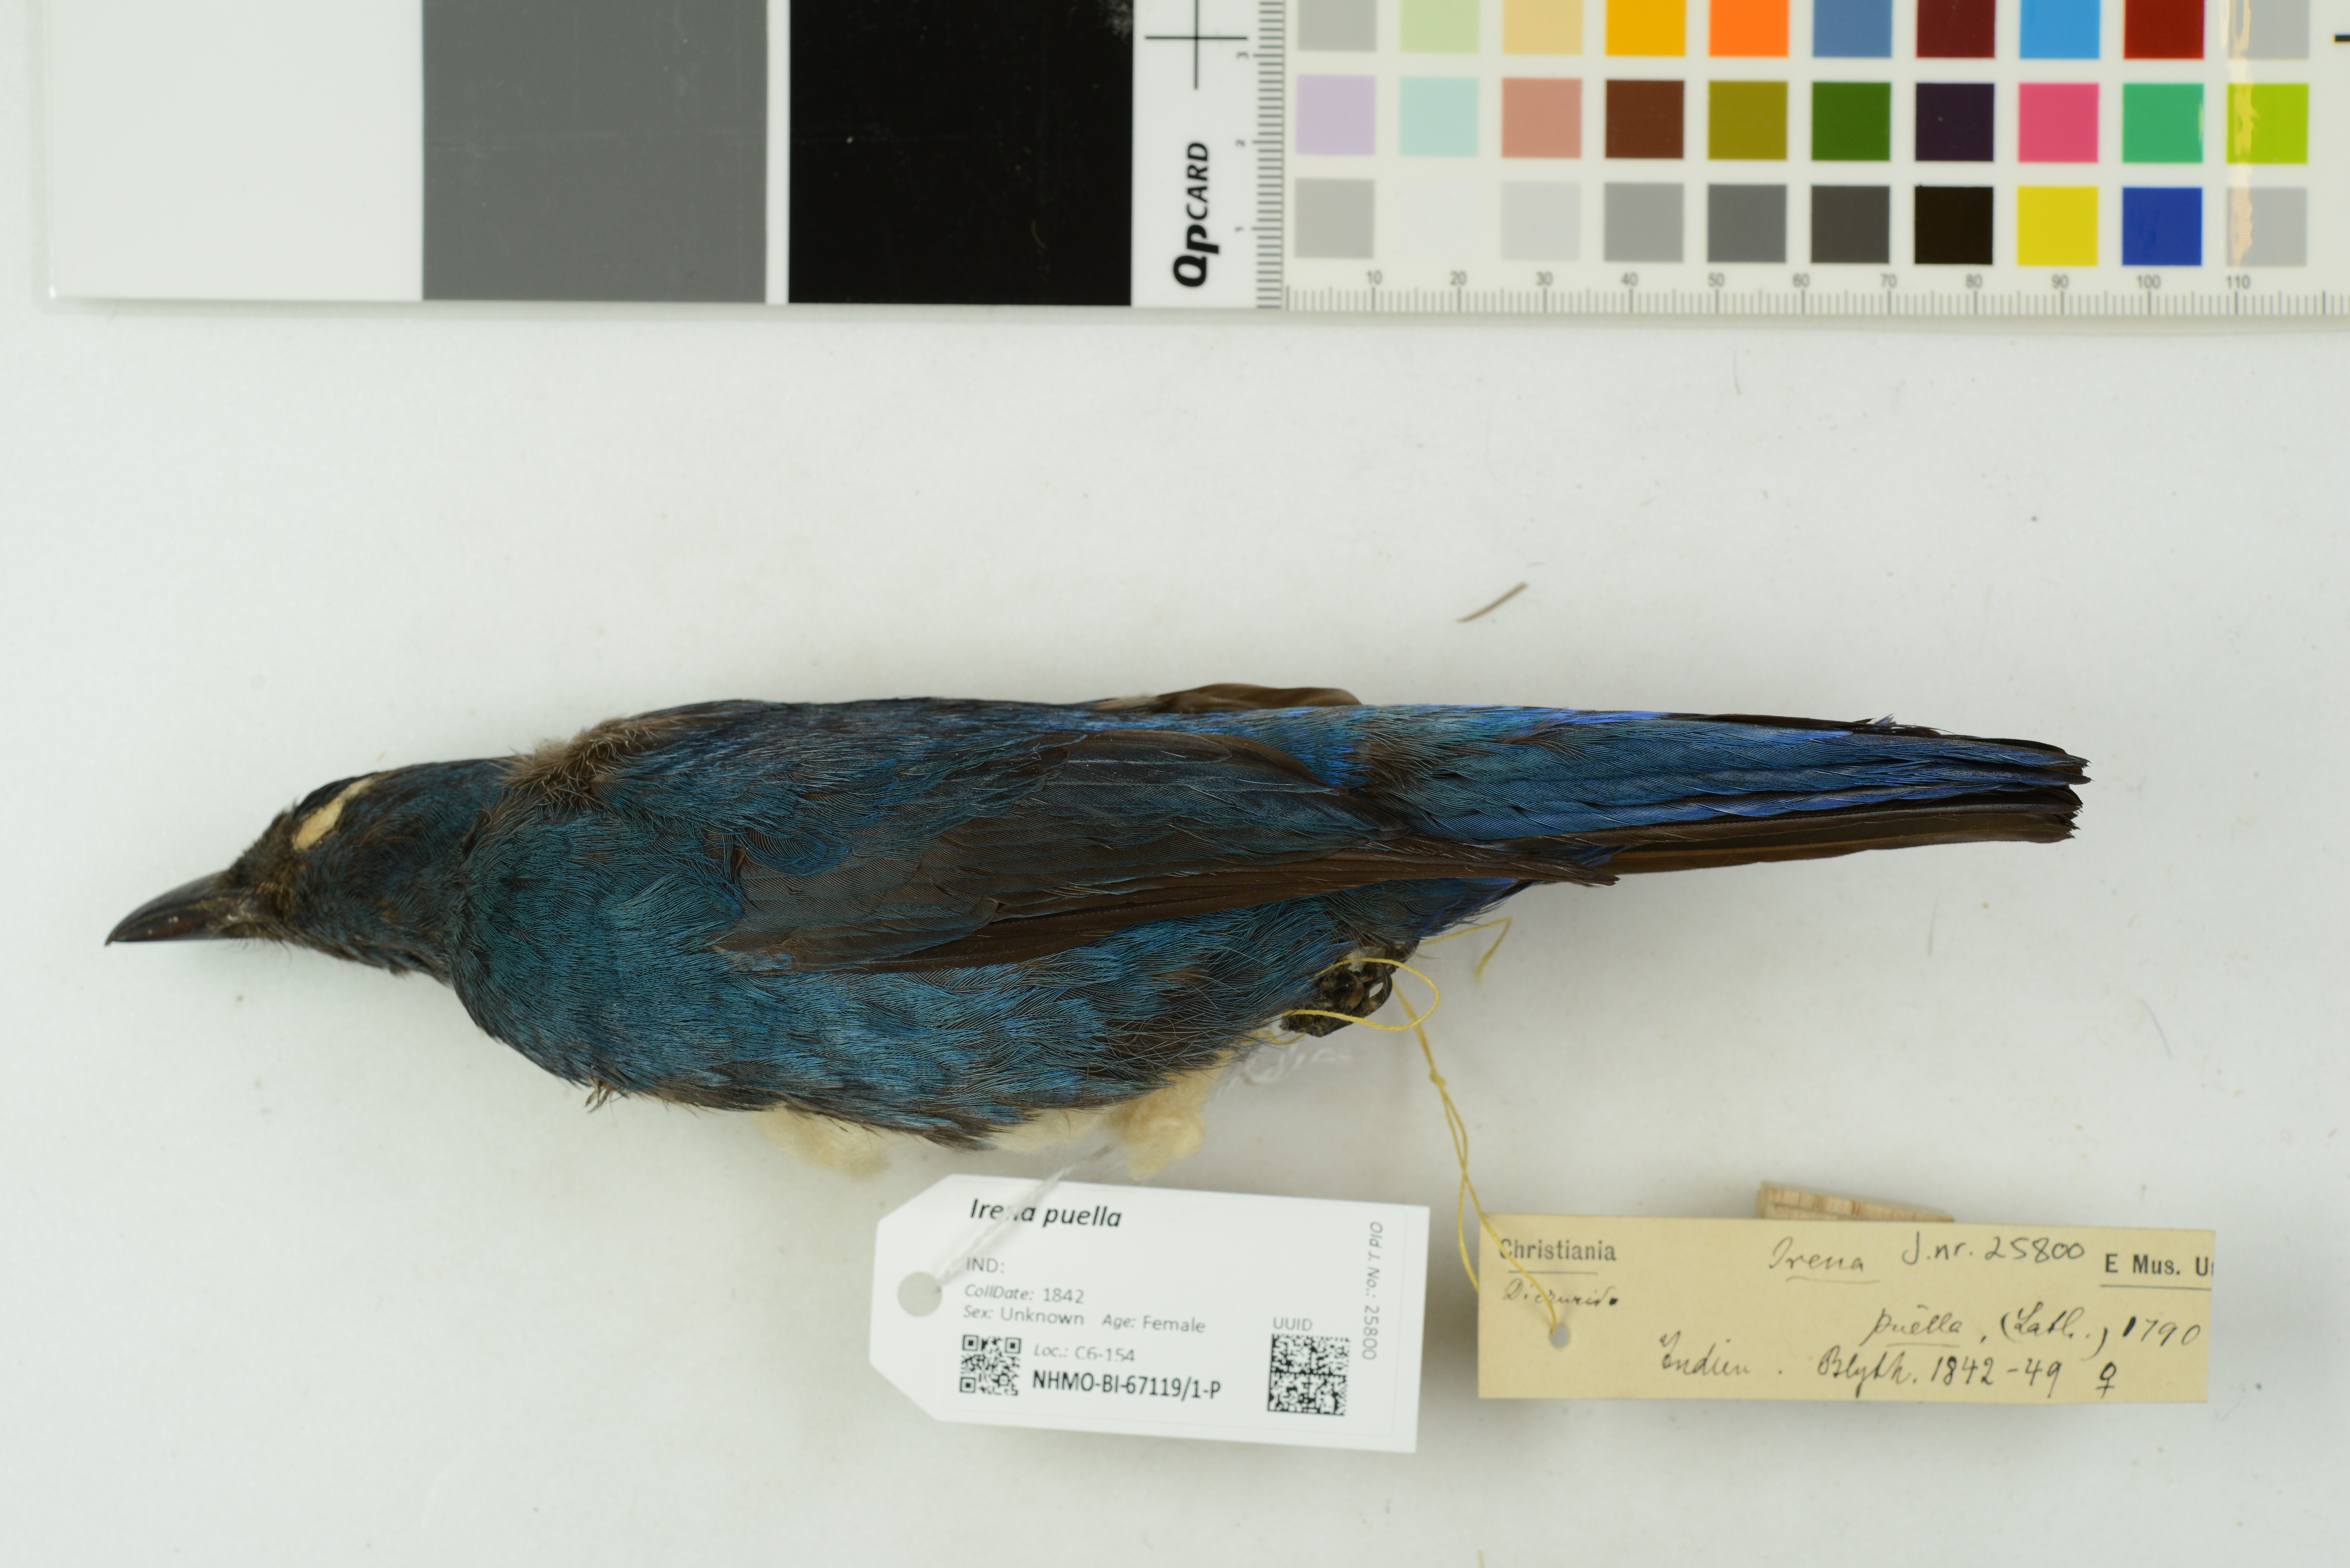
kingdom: Animalia
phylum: Chordata
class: Aves
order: Passeriformes
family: Irenidae
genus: Irena
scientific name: Irena puella
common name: Asian fairy-bluebird
